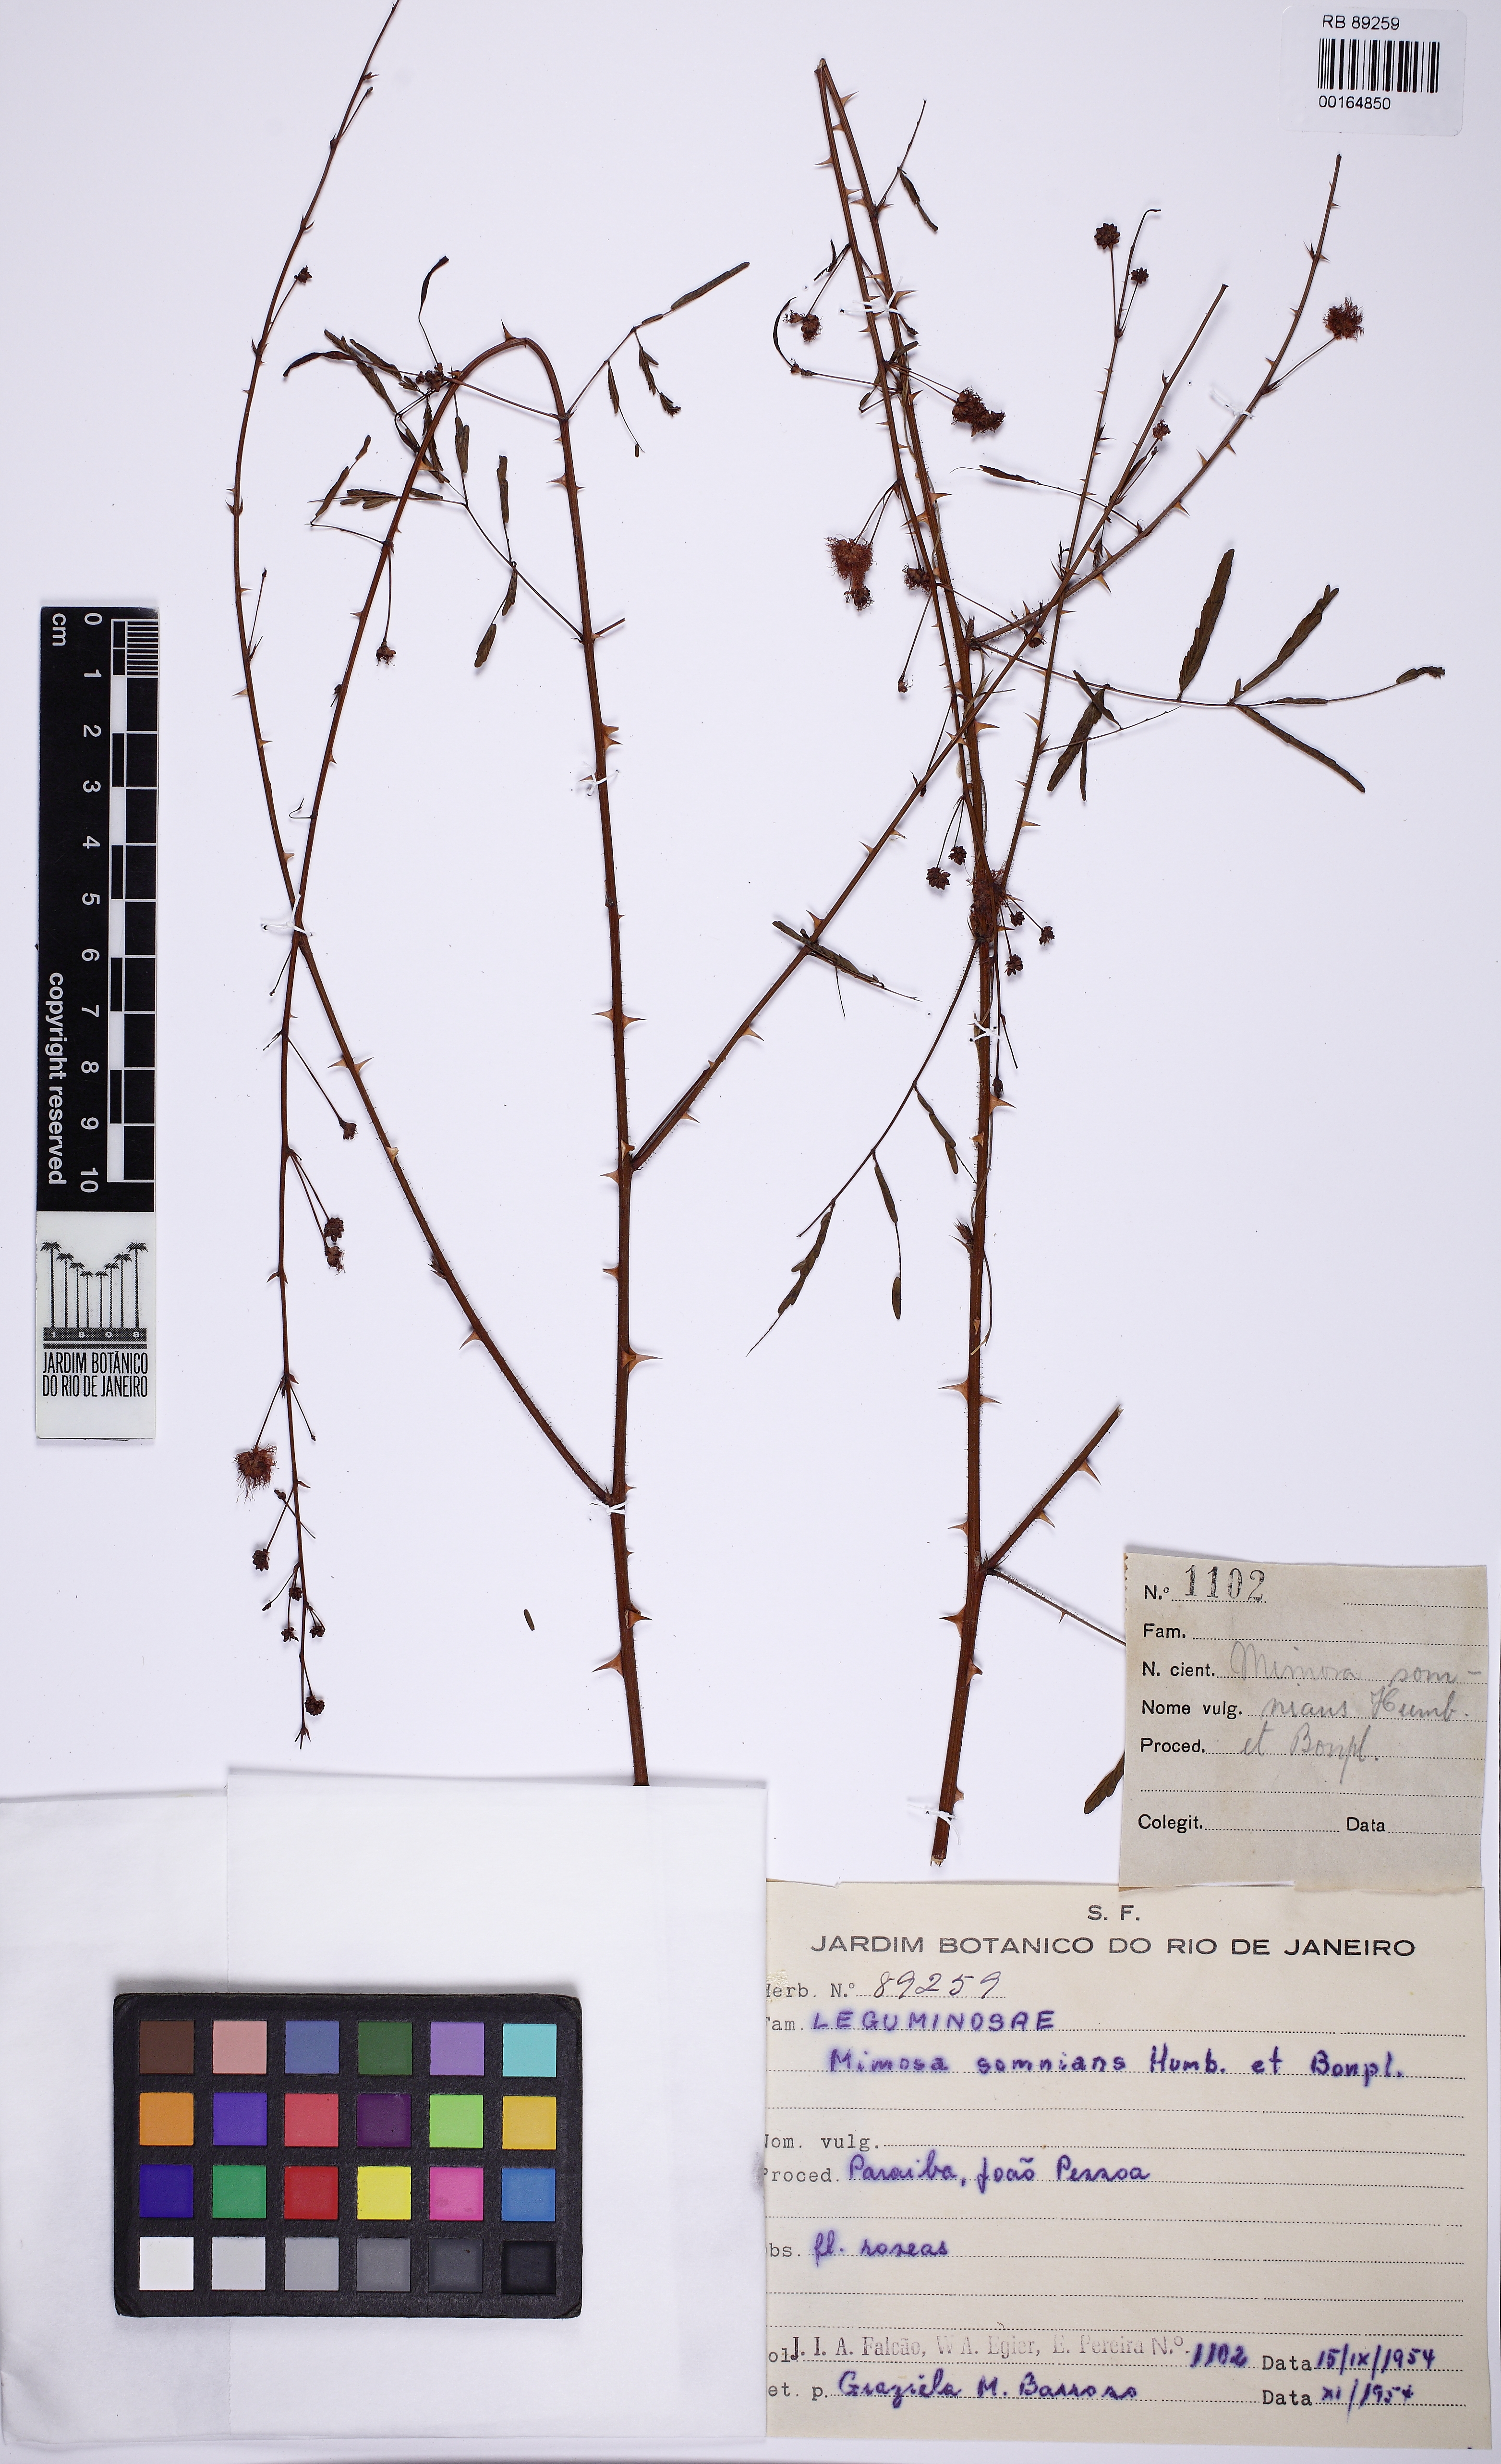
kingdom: Plantae
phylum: Tracheophyta
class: Magnoliopsida
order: Fabales
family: Fabaceae
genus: Mimosa
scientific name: Mimosa somnians
